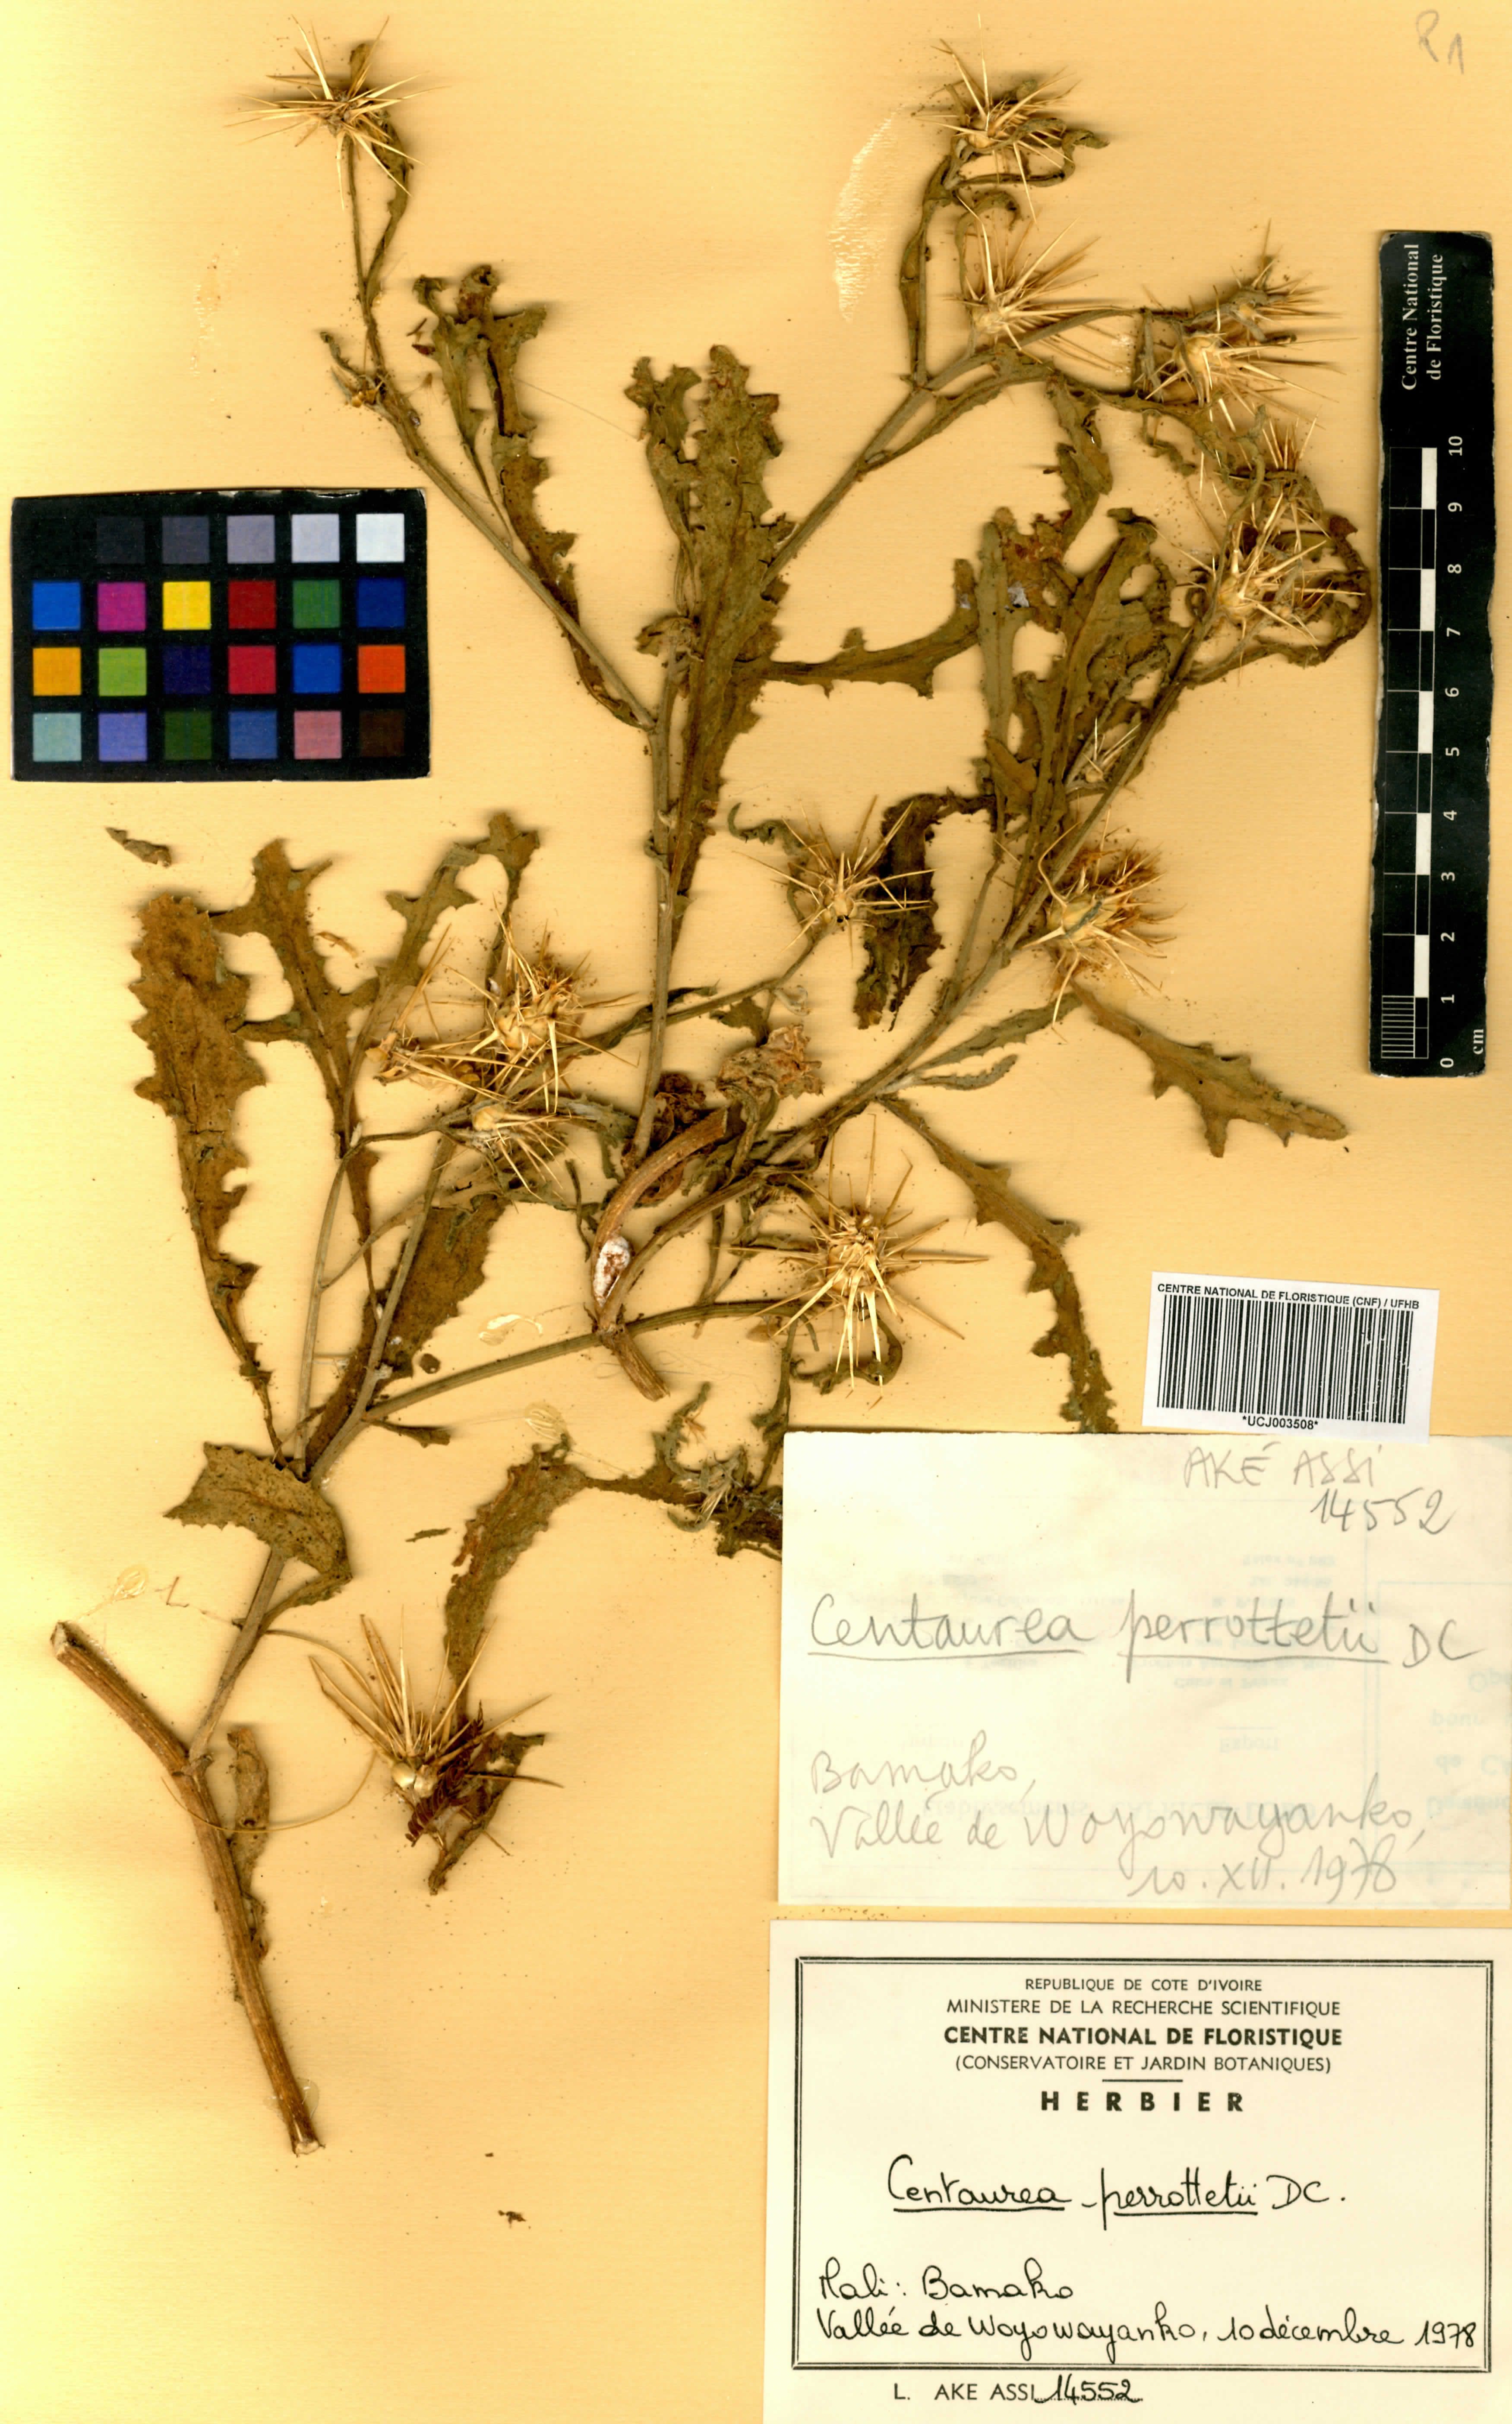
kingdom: Plantae
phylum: Tracheophyta
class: Magnoliopsida
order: Asterales
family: Asteraceae
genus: Centaurea
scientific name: Centaurea perrottettii
